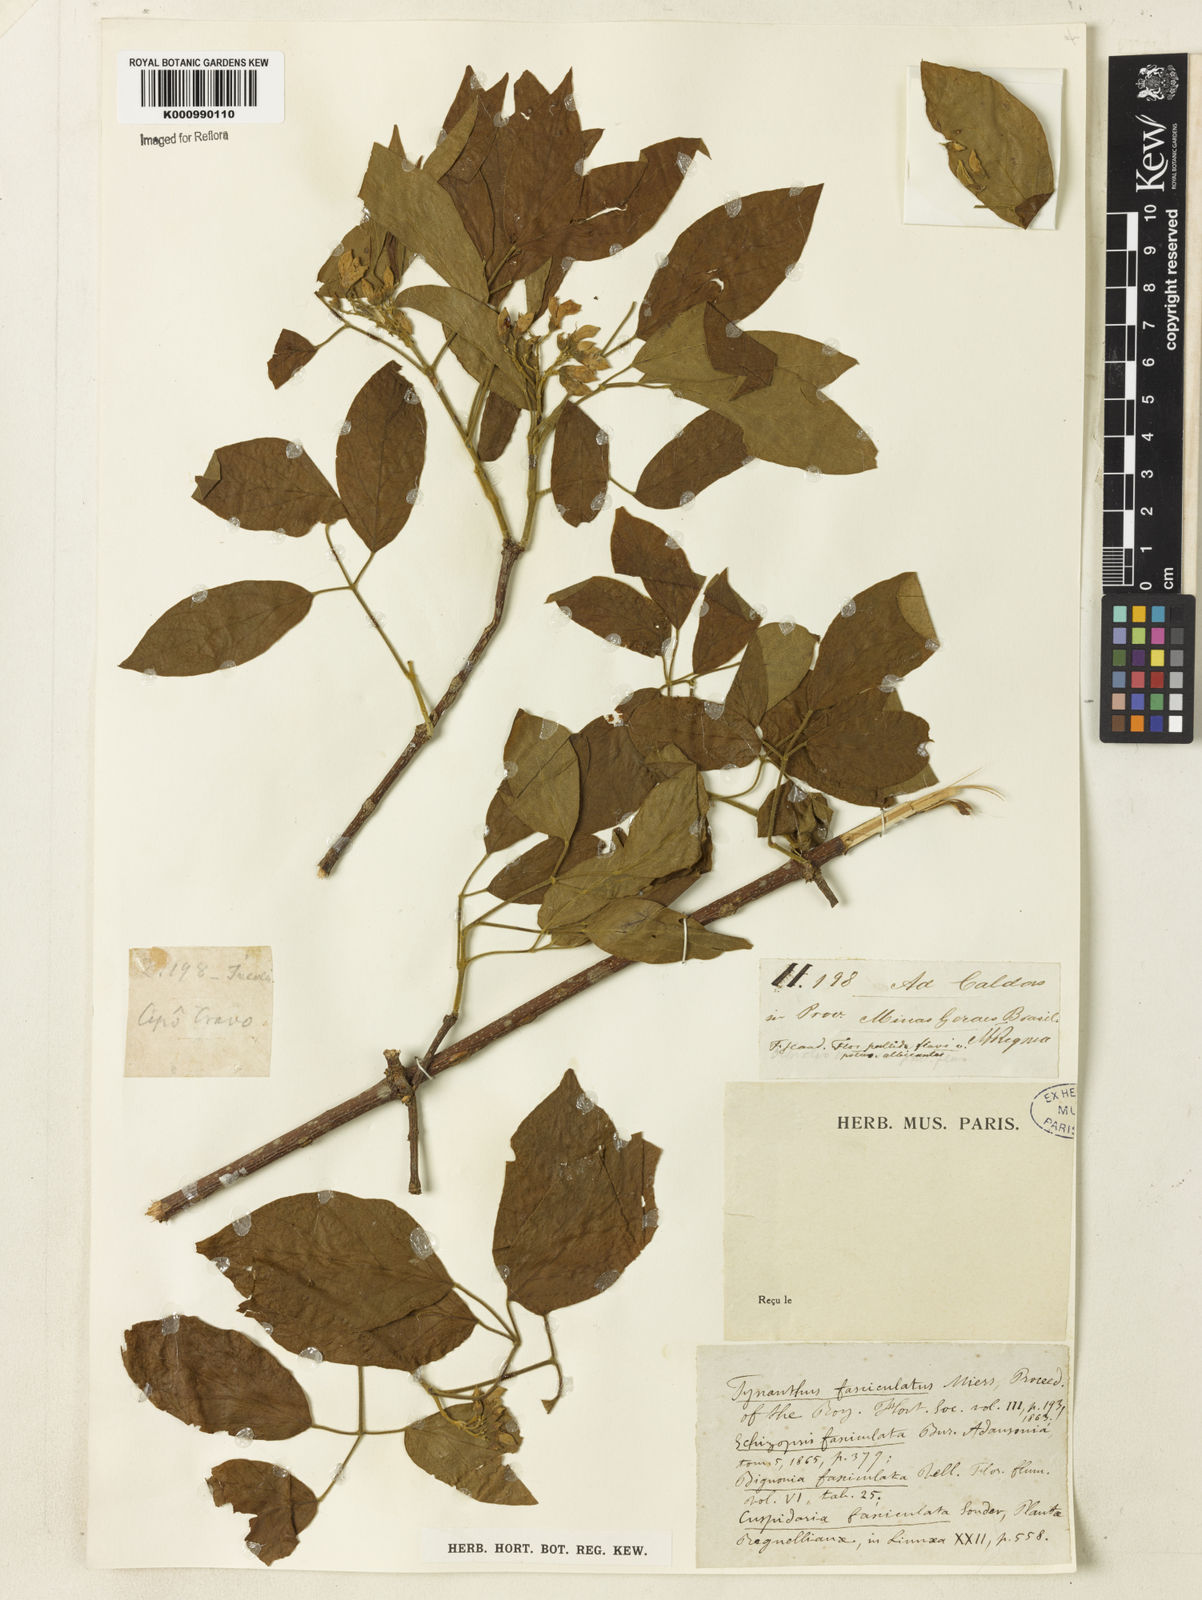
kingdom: Plantae
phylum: Tracheophyta
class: Magnoliopsida
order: Lamiales
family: Bignoniaceae
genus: Tynanthus
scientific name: Tynanthus fasciculatus
